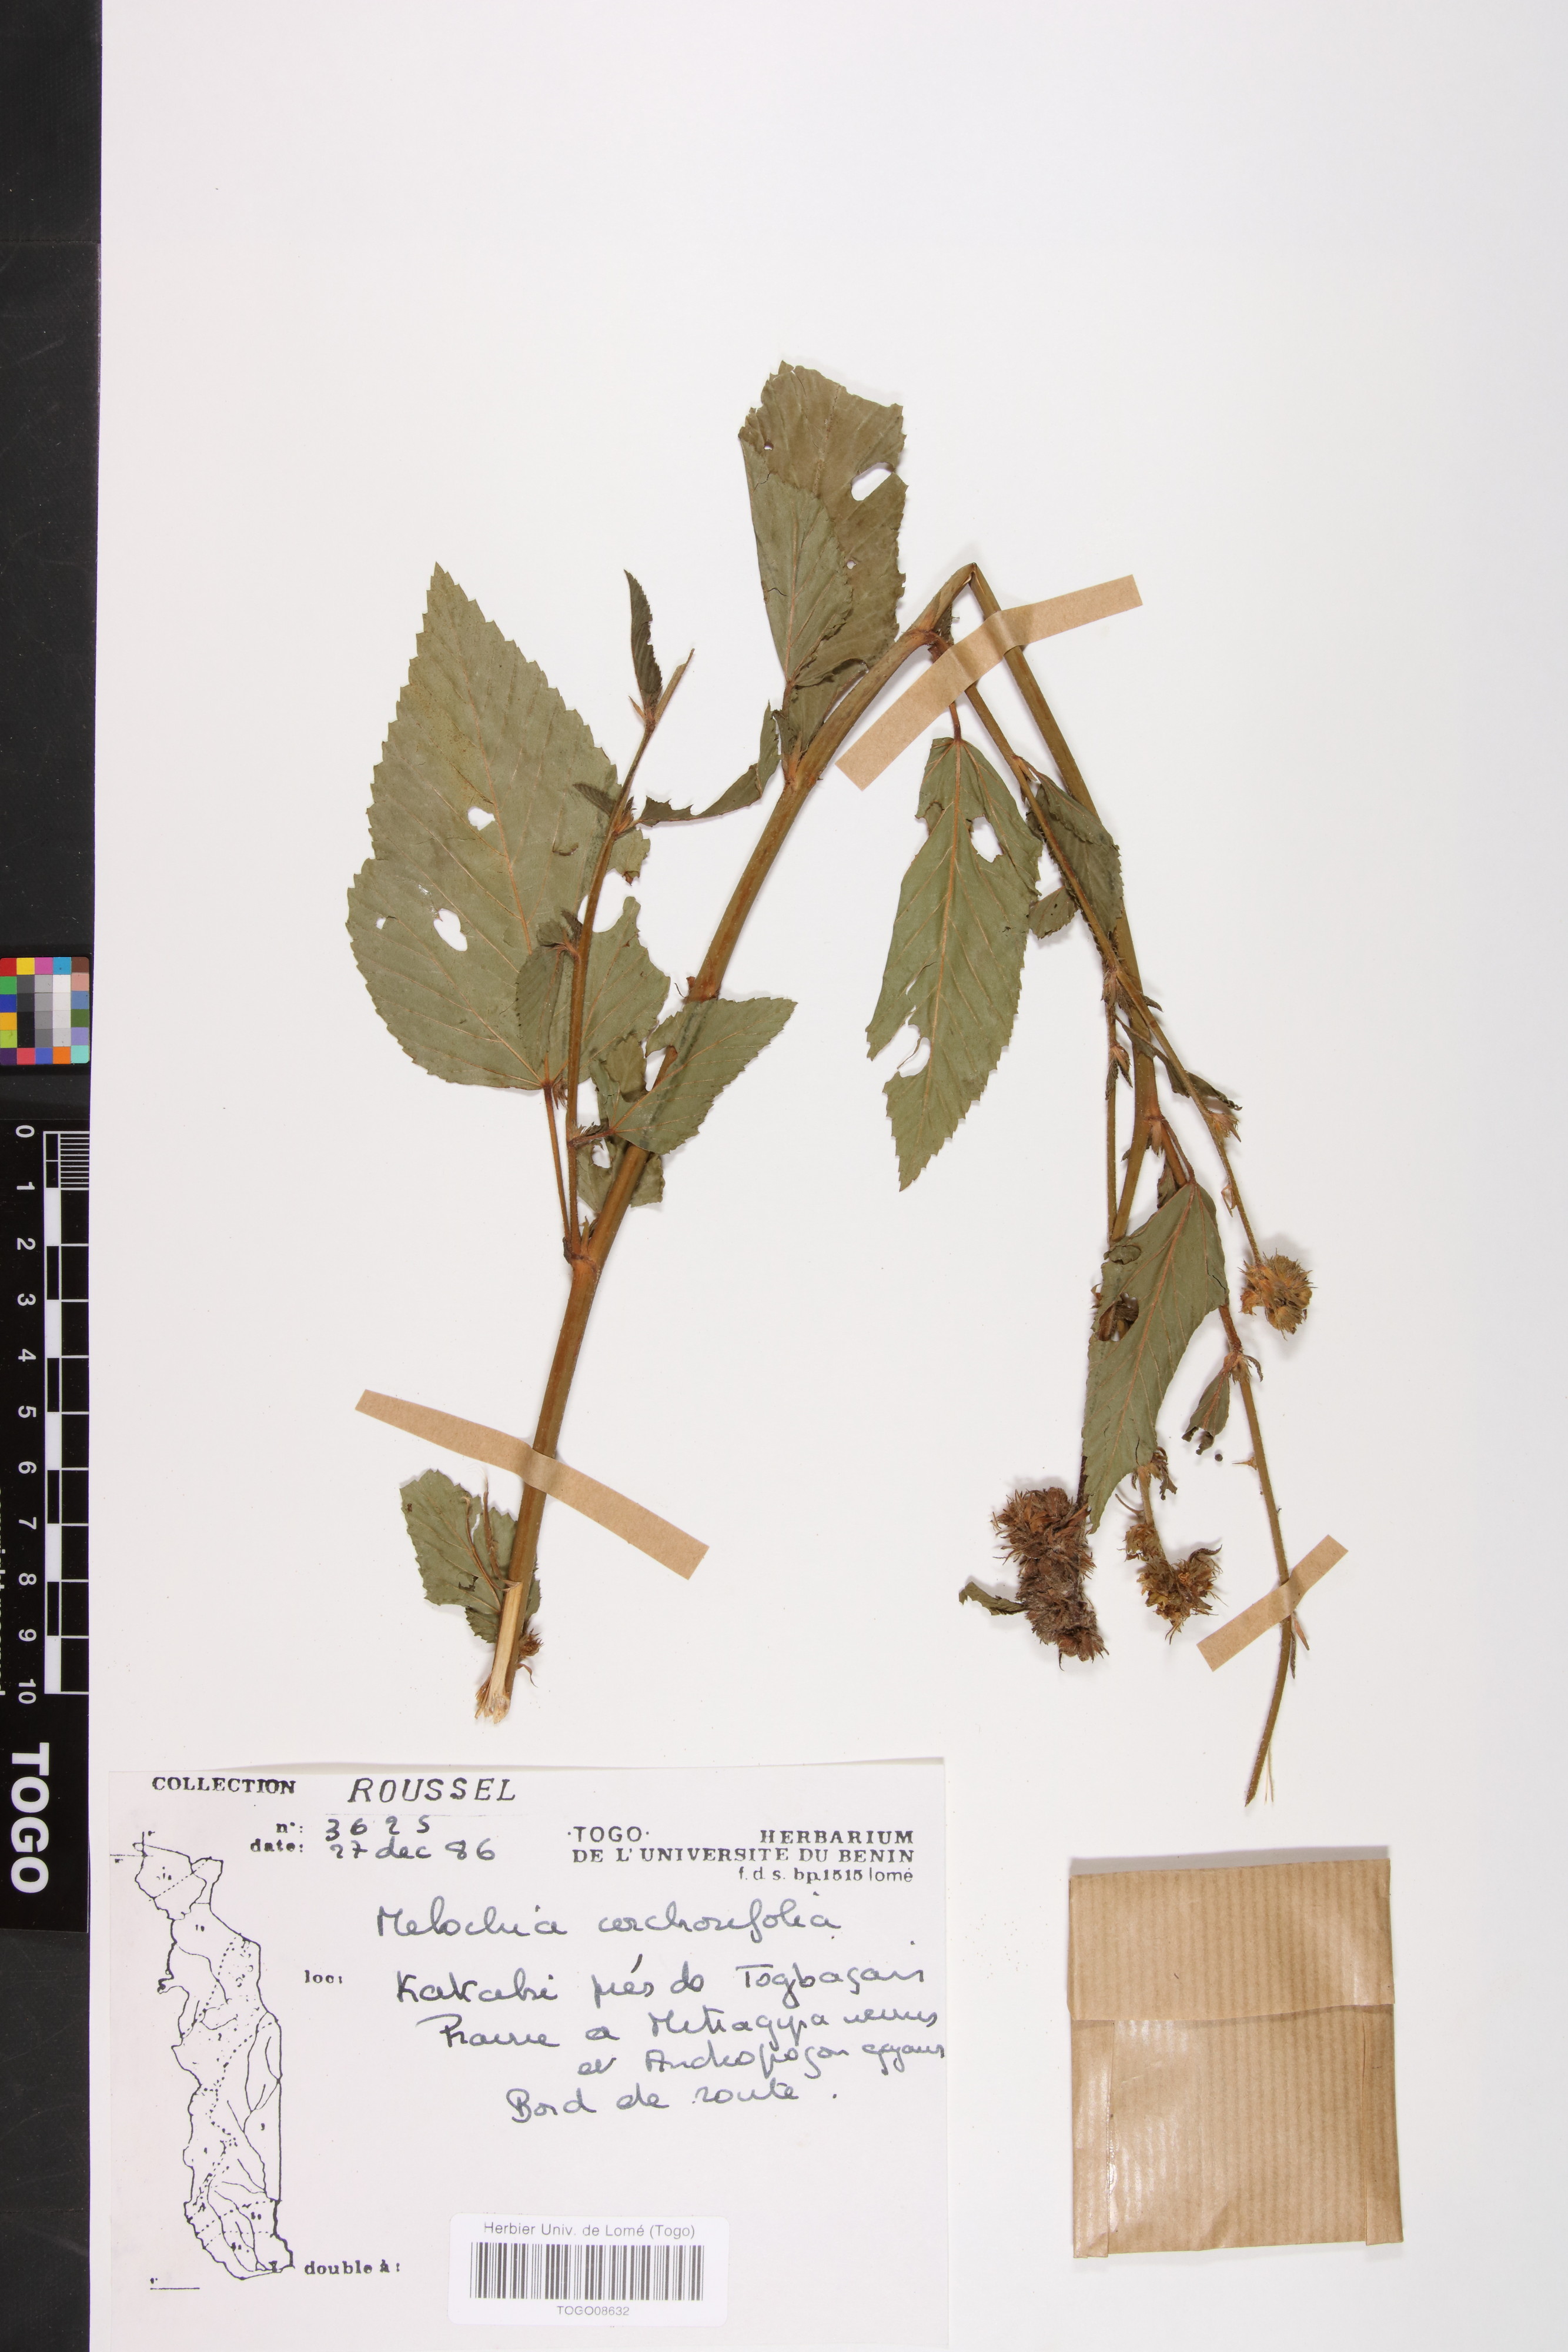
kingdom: Plantae
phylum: Tracheophyta
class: Magnoliopsida
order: Malvales
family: Malvaceae
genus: Melochia
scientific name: Melochia corchorifolia
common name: Chocolateweed
